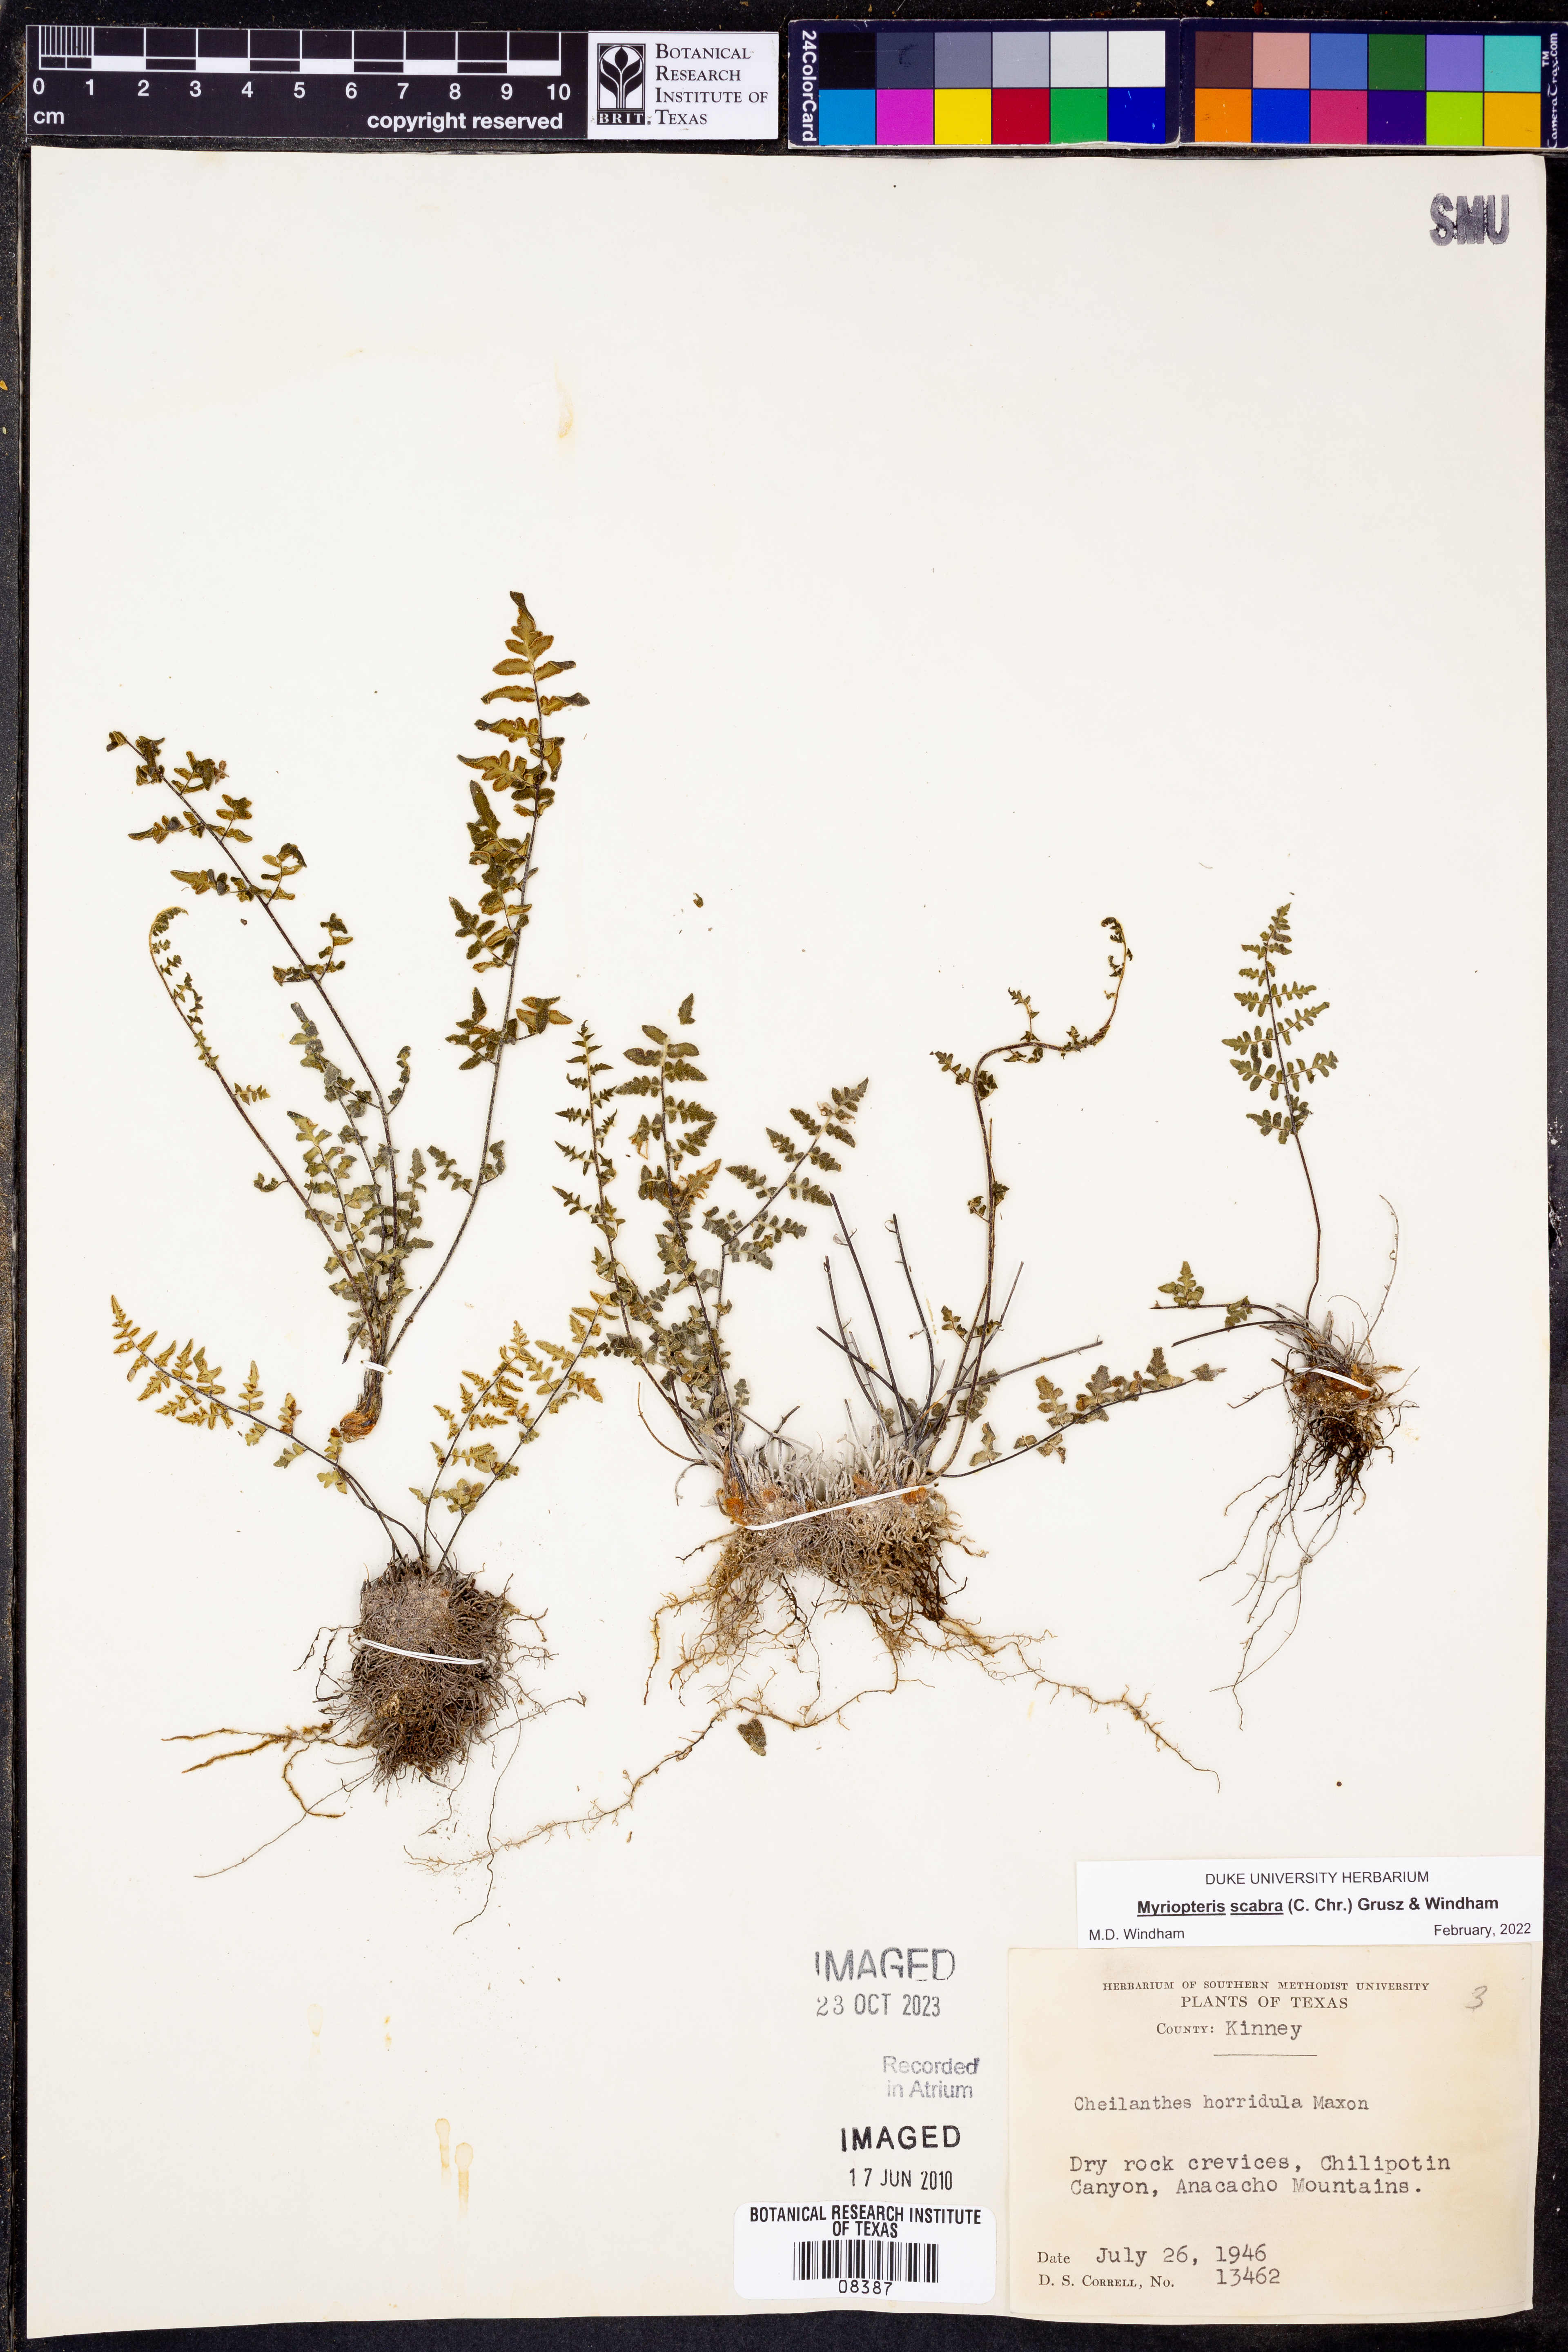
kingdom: Plantae
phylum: Tracheophyta
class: Polypodiopsida
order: Polypodiales
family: Pteridaceae
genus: Myriopteris
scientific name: Myriopteris scabra
